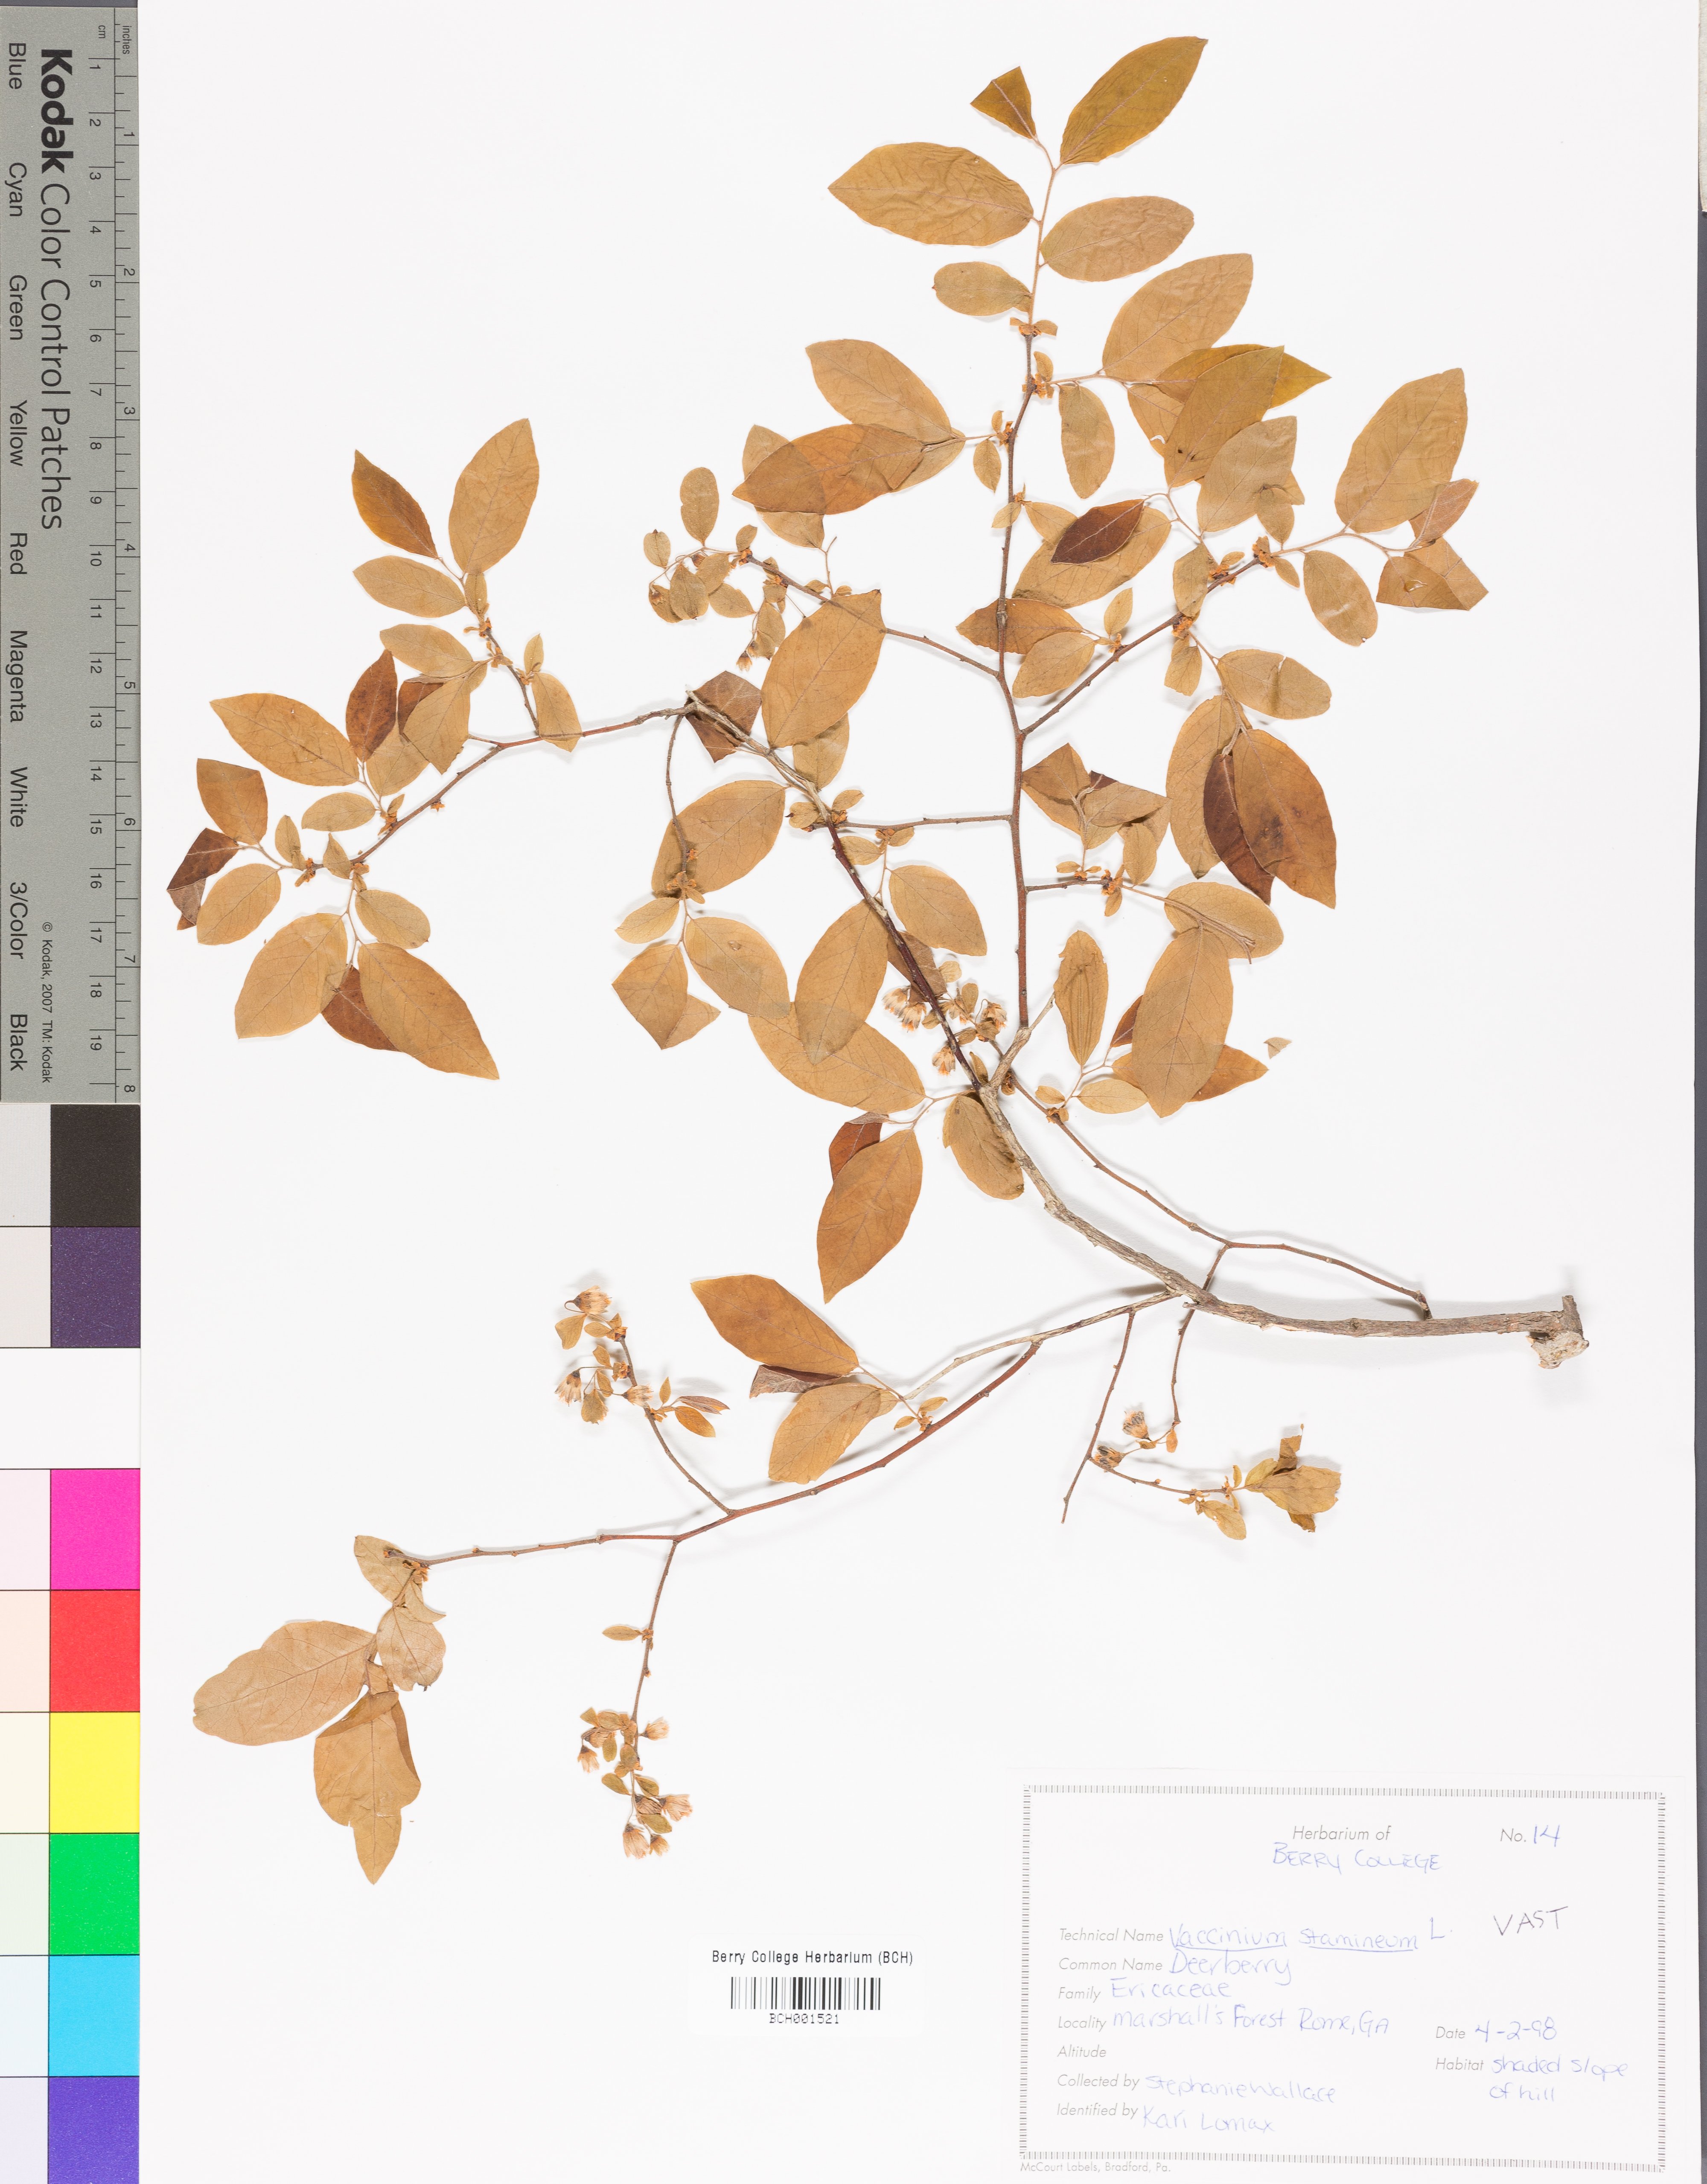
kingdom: Plantae
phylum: Tracheophyta
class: Magnoliopsida
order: Ericales
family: Ericaceae
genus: Vaccinium
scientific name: Vaccinium stamineum
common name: Deerberry
